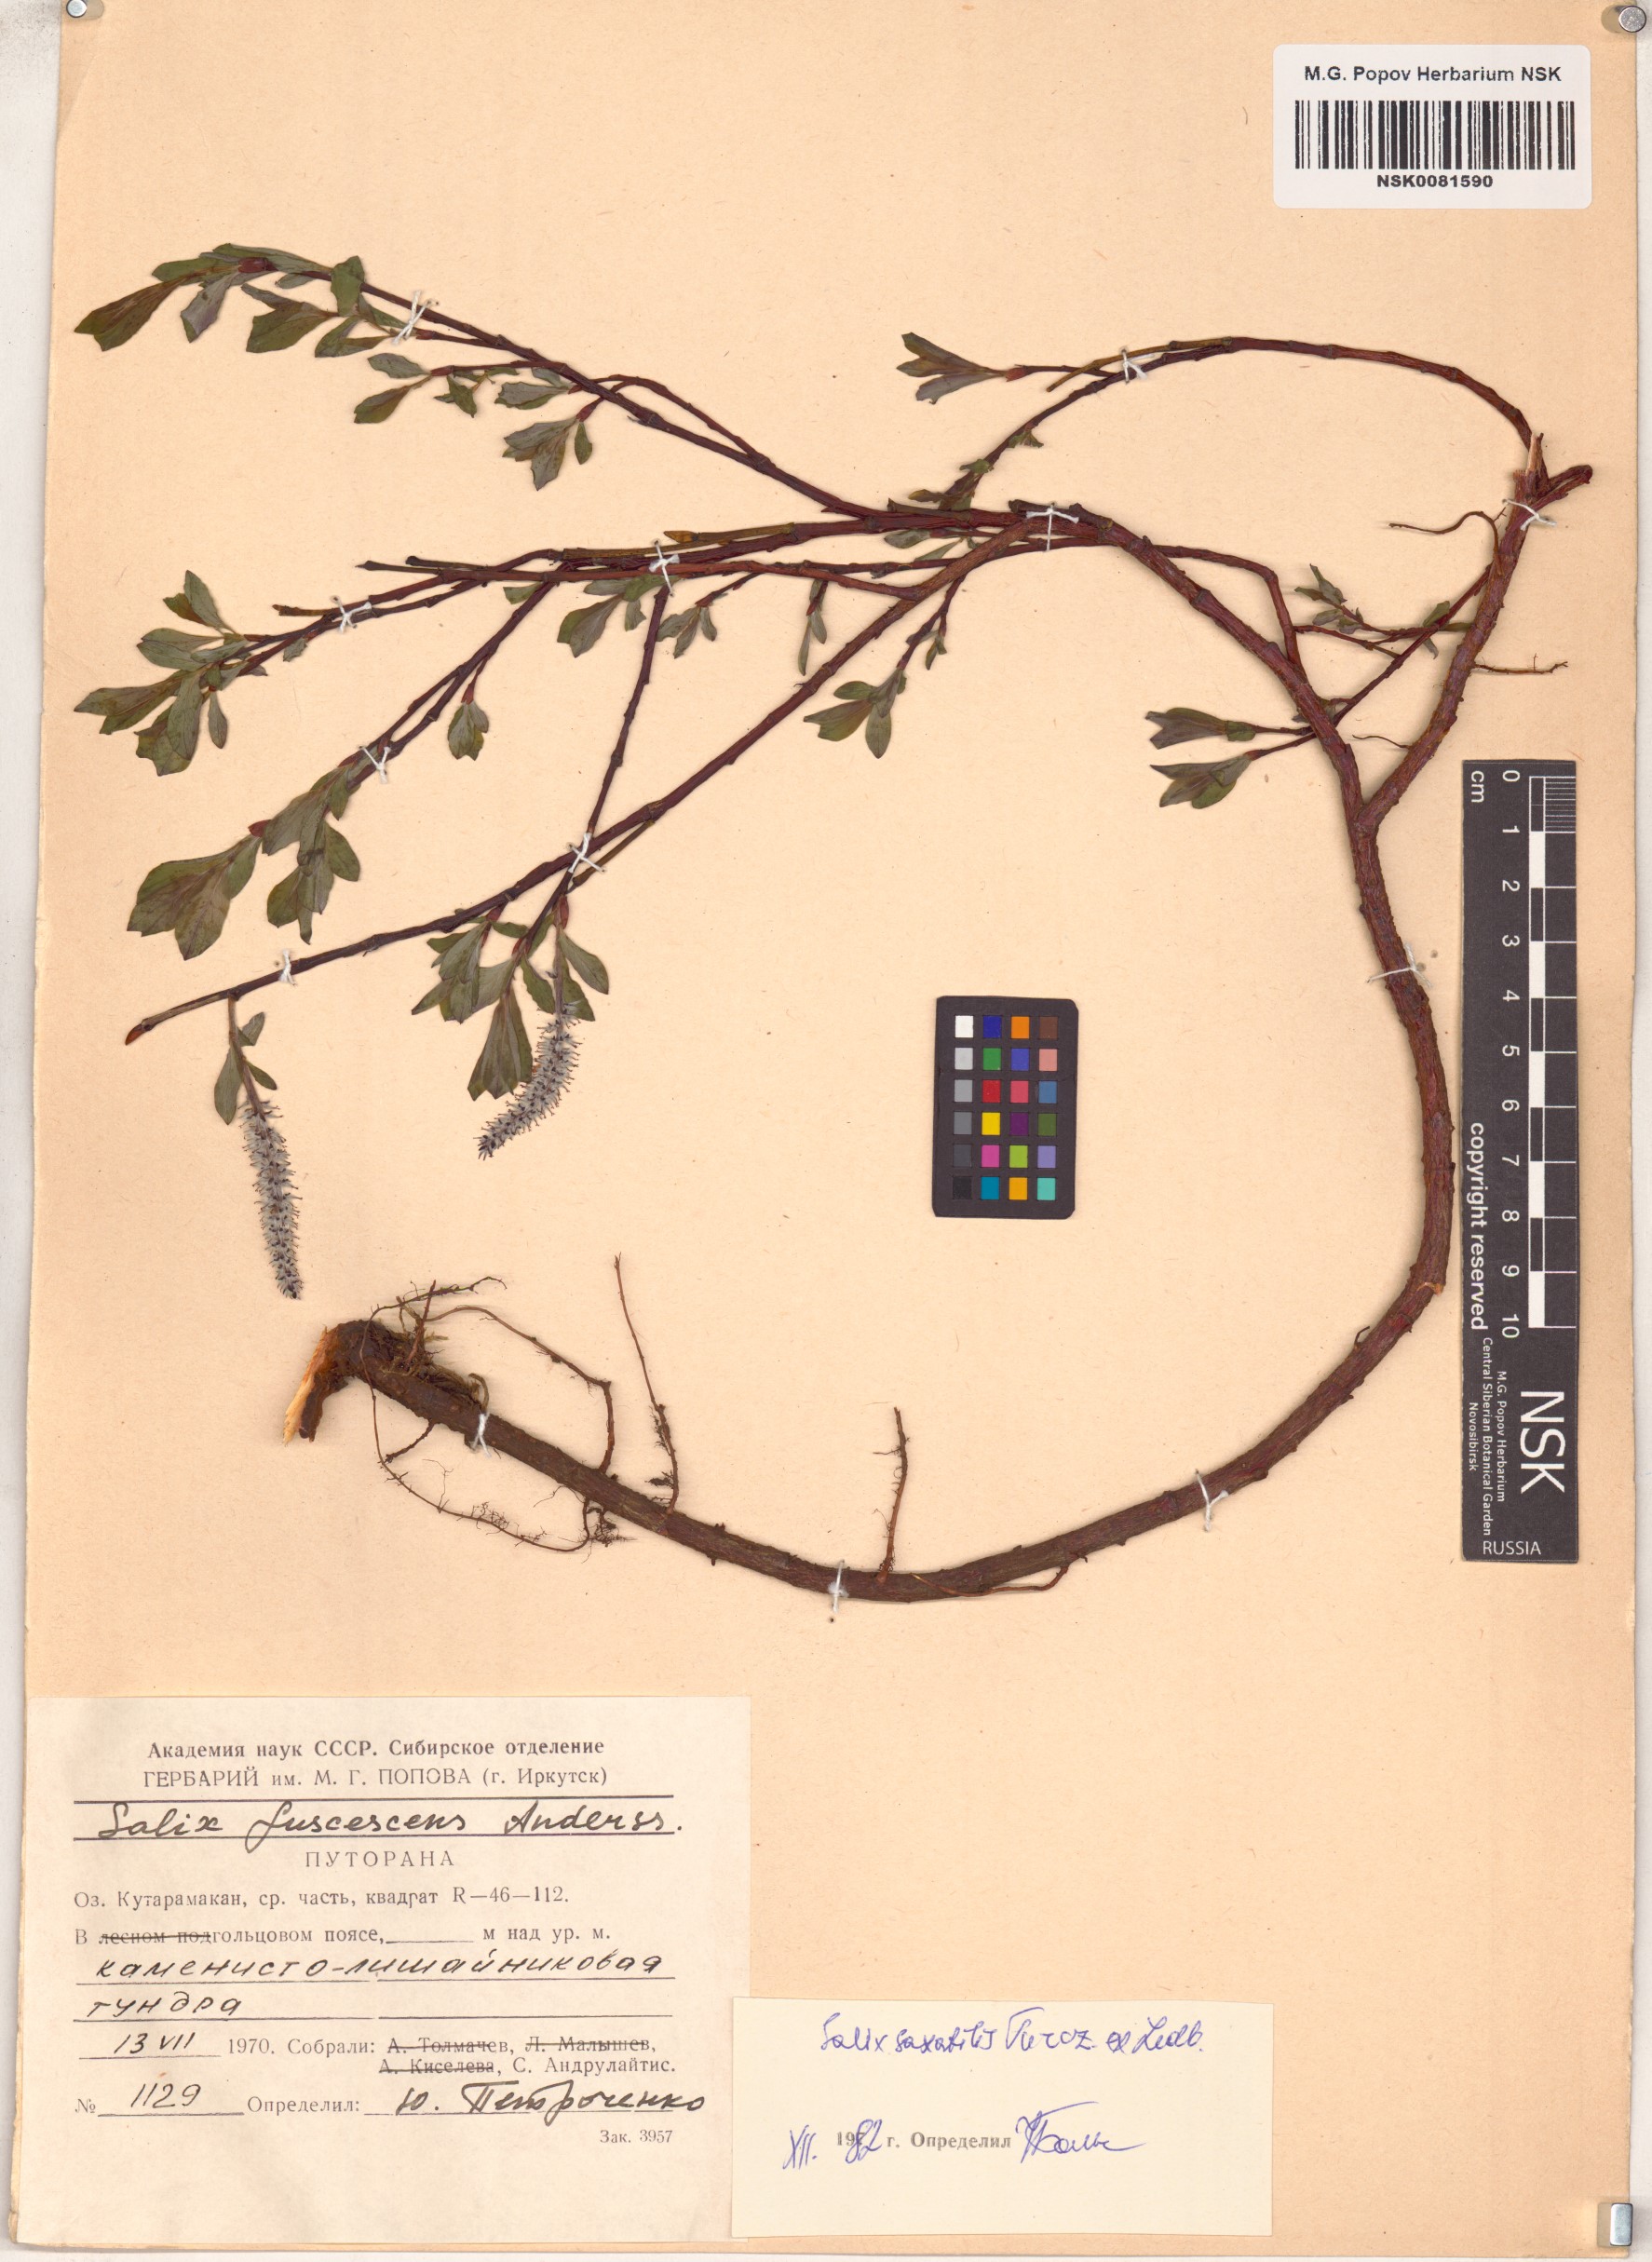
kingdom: Plantae
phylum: Tracheophyta
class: Magnoliopsida
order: Malpighiales
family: Salicaceae
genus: Salix
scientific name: Salix saxatilis
